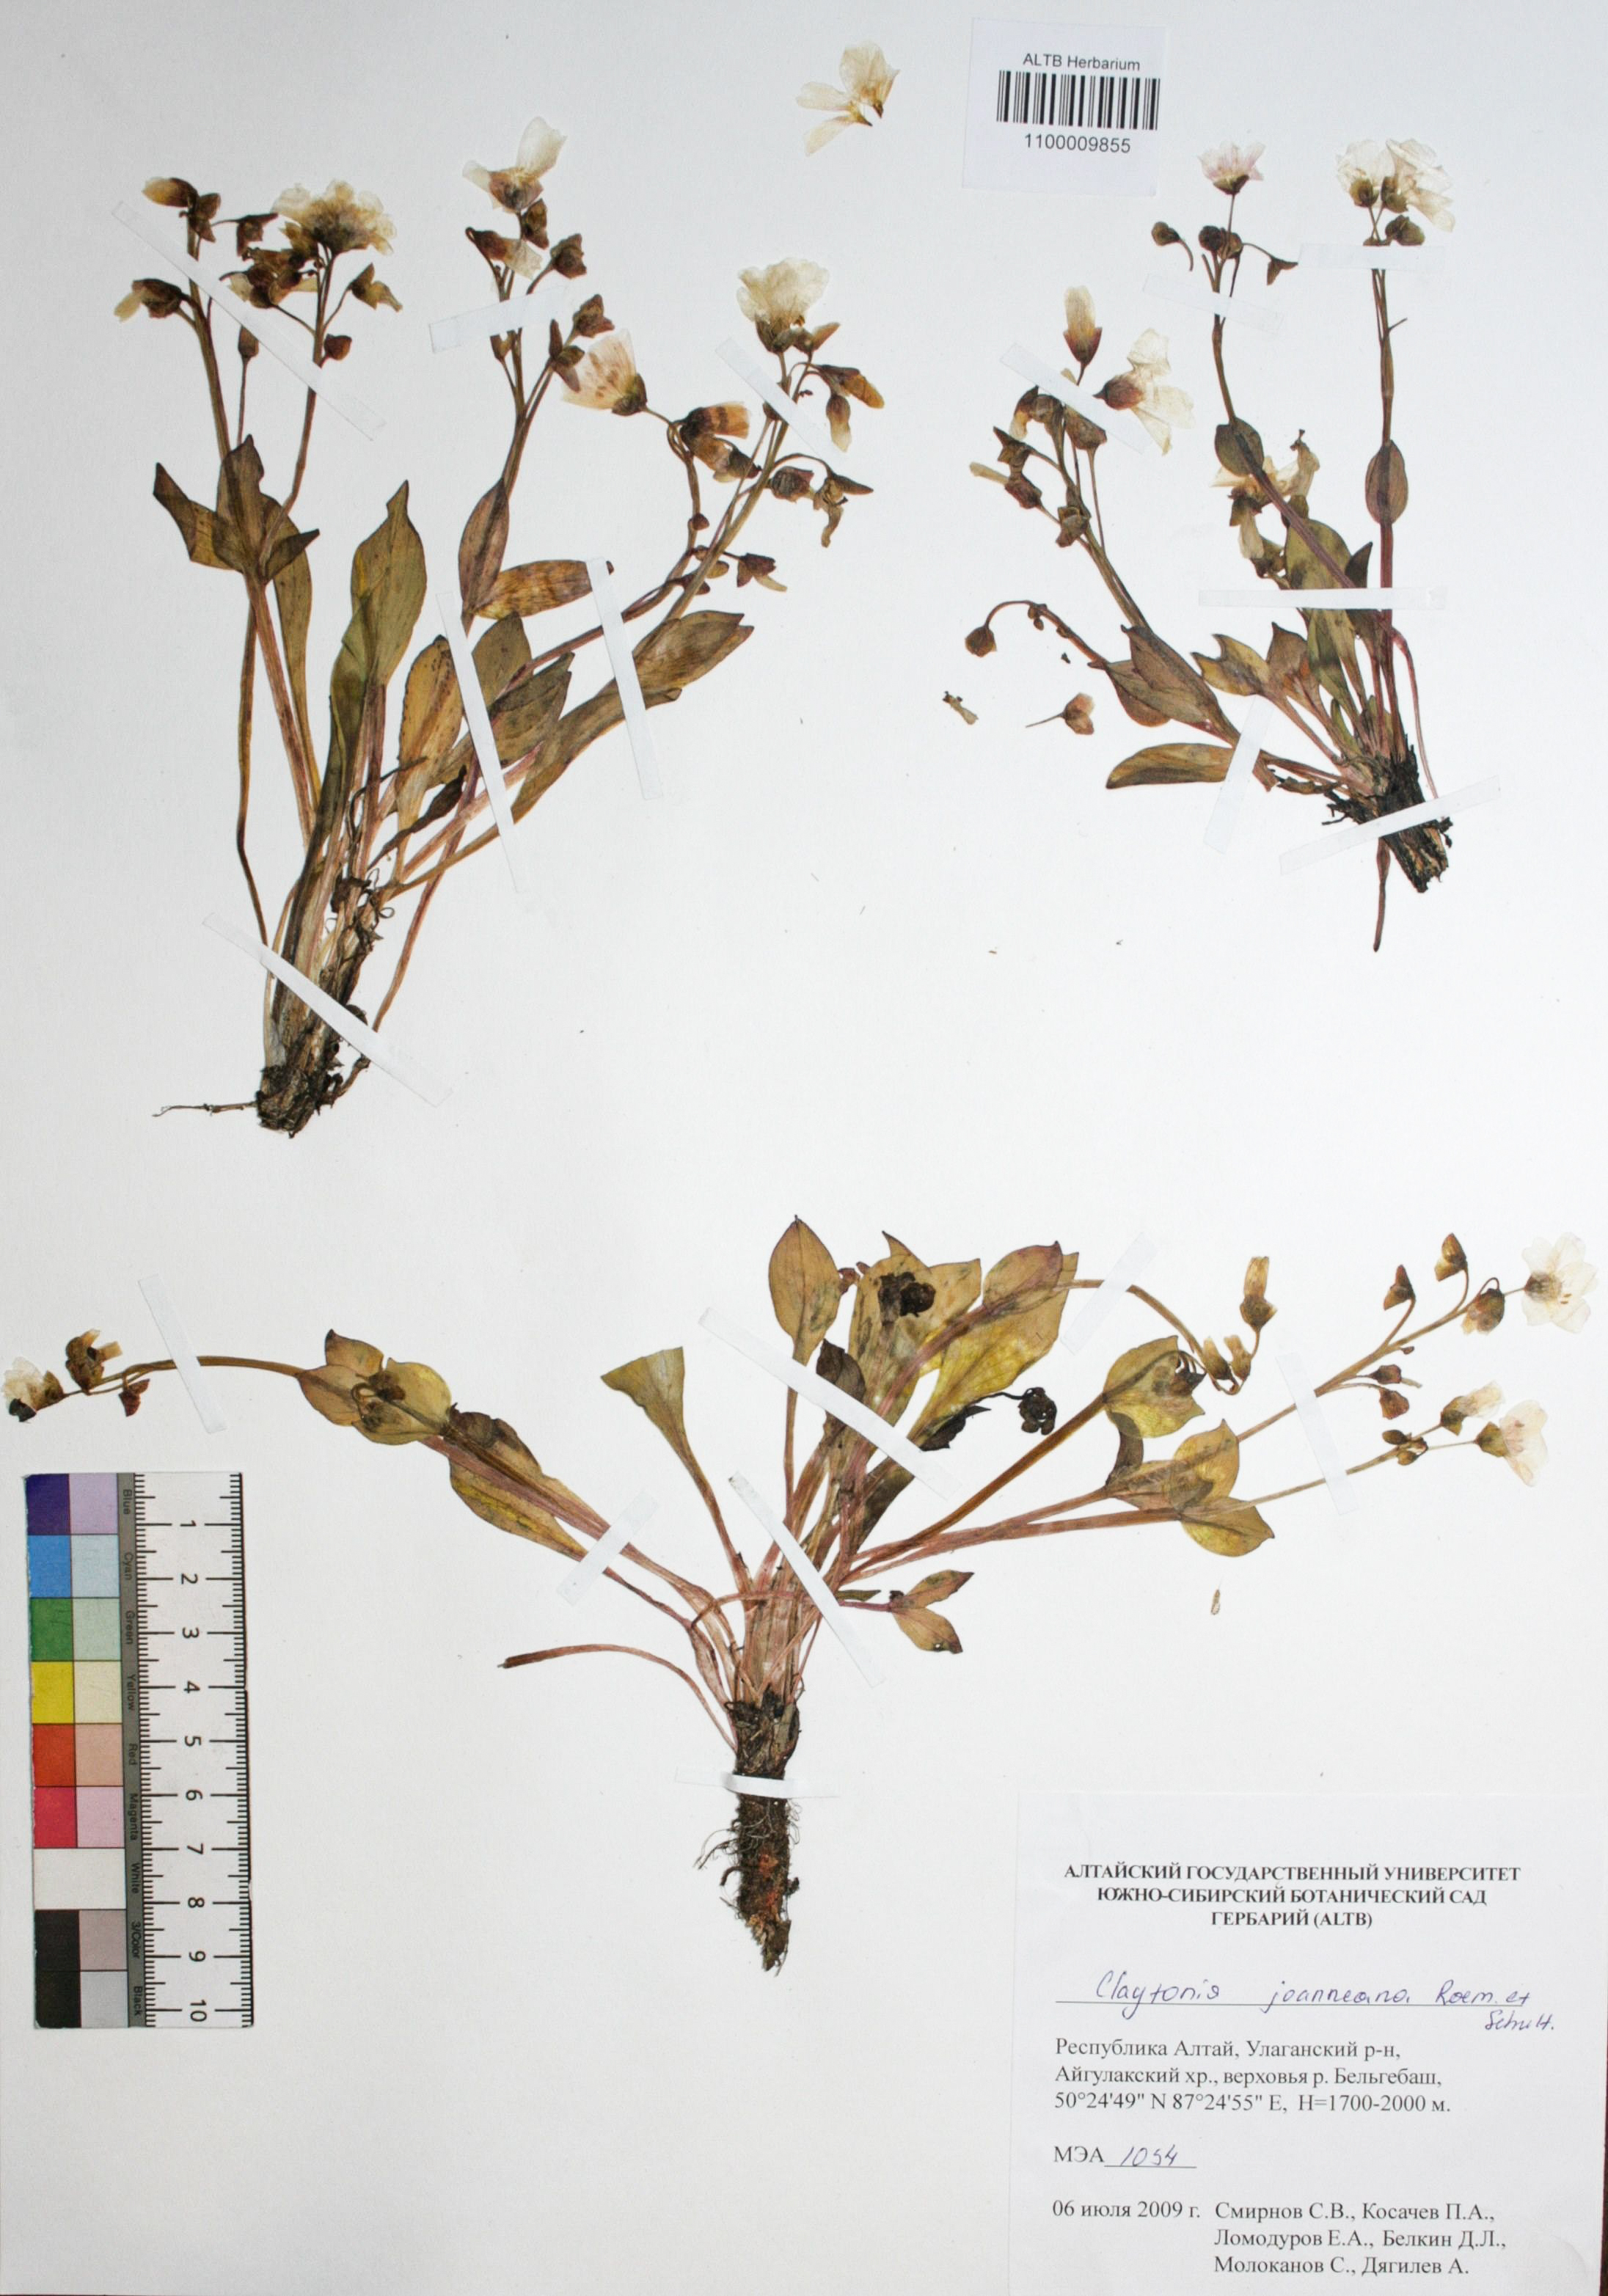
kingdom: Plantae
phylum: Tracheophyta
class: Magnoliopsida
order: Caryophyllales
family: Montiaceae
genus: Claytonia
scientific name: Claytonia joanneana
